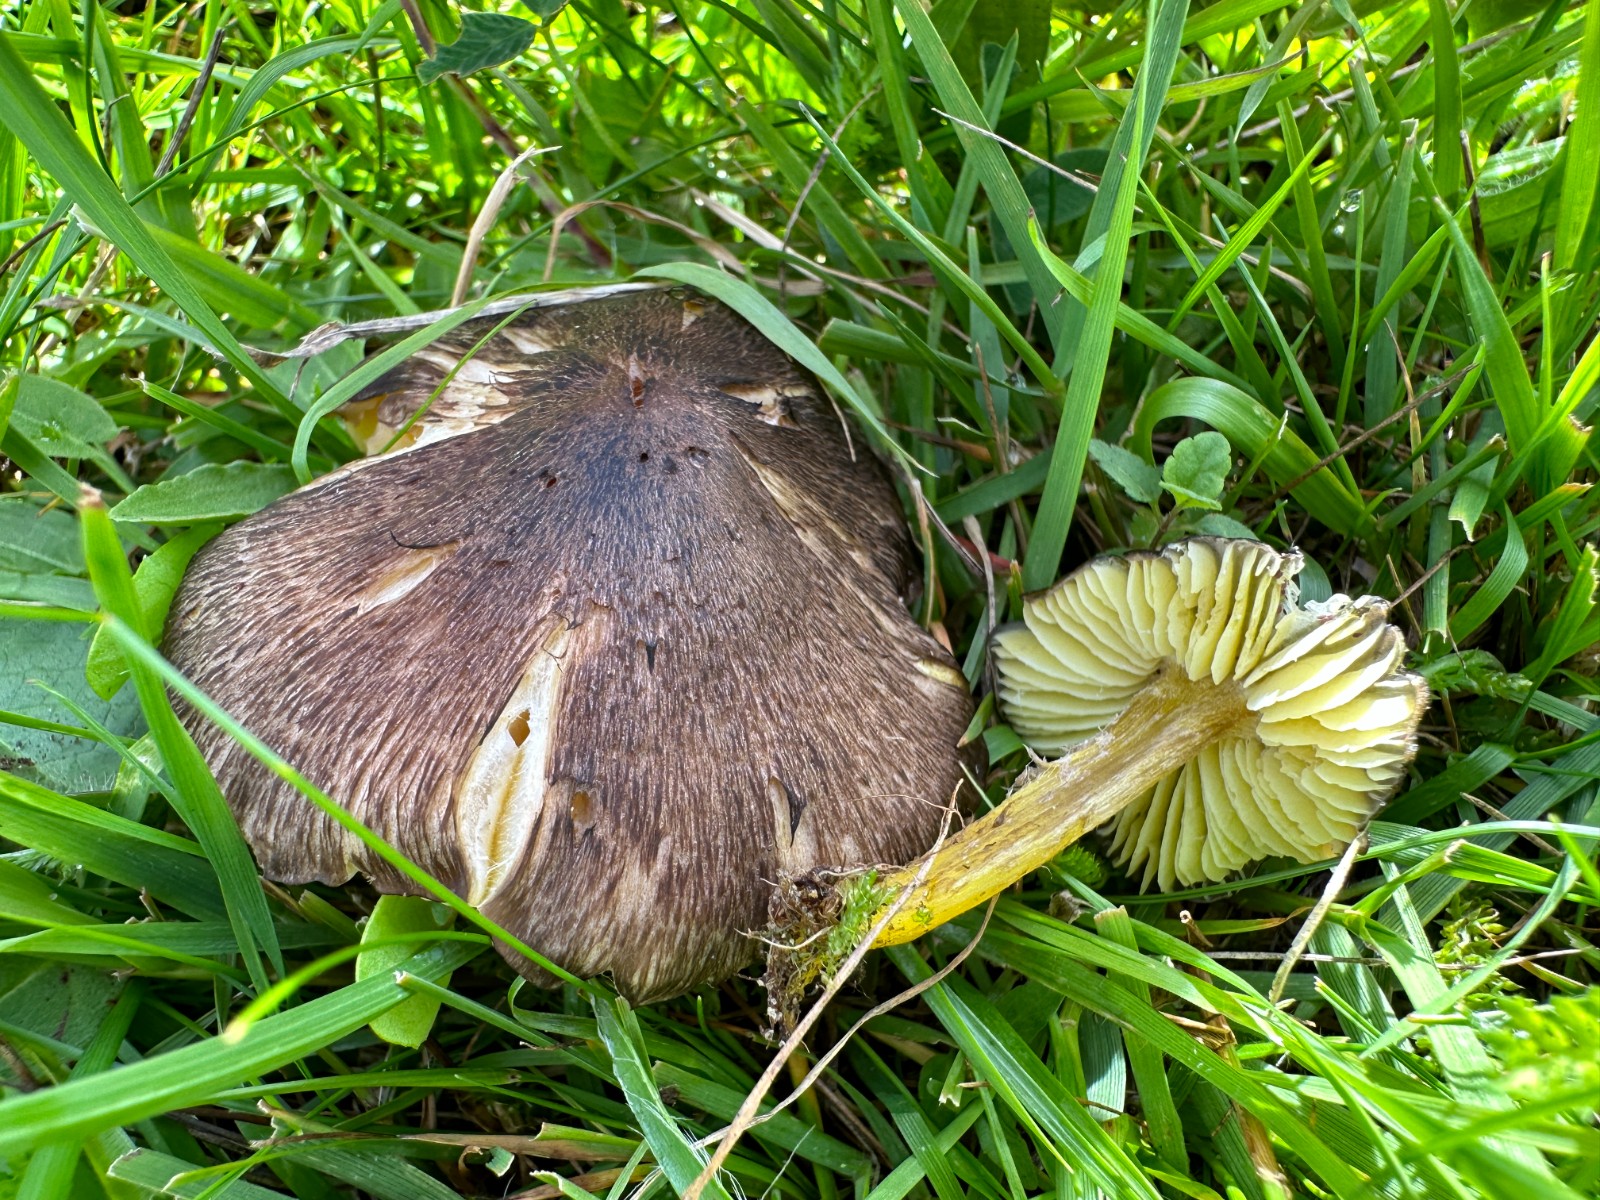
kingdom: Fungi
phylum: Basidiomycota
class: Agaricomycetes
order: Agaricales
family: Hygrophoraceae
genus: Hygrocybe
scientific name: Hygrocybe spadicea
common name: daddelbrun vokshat
